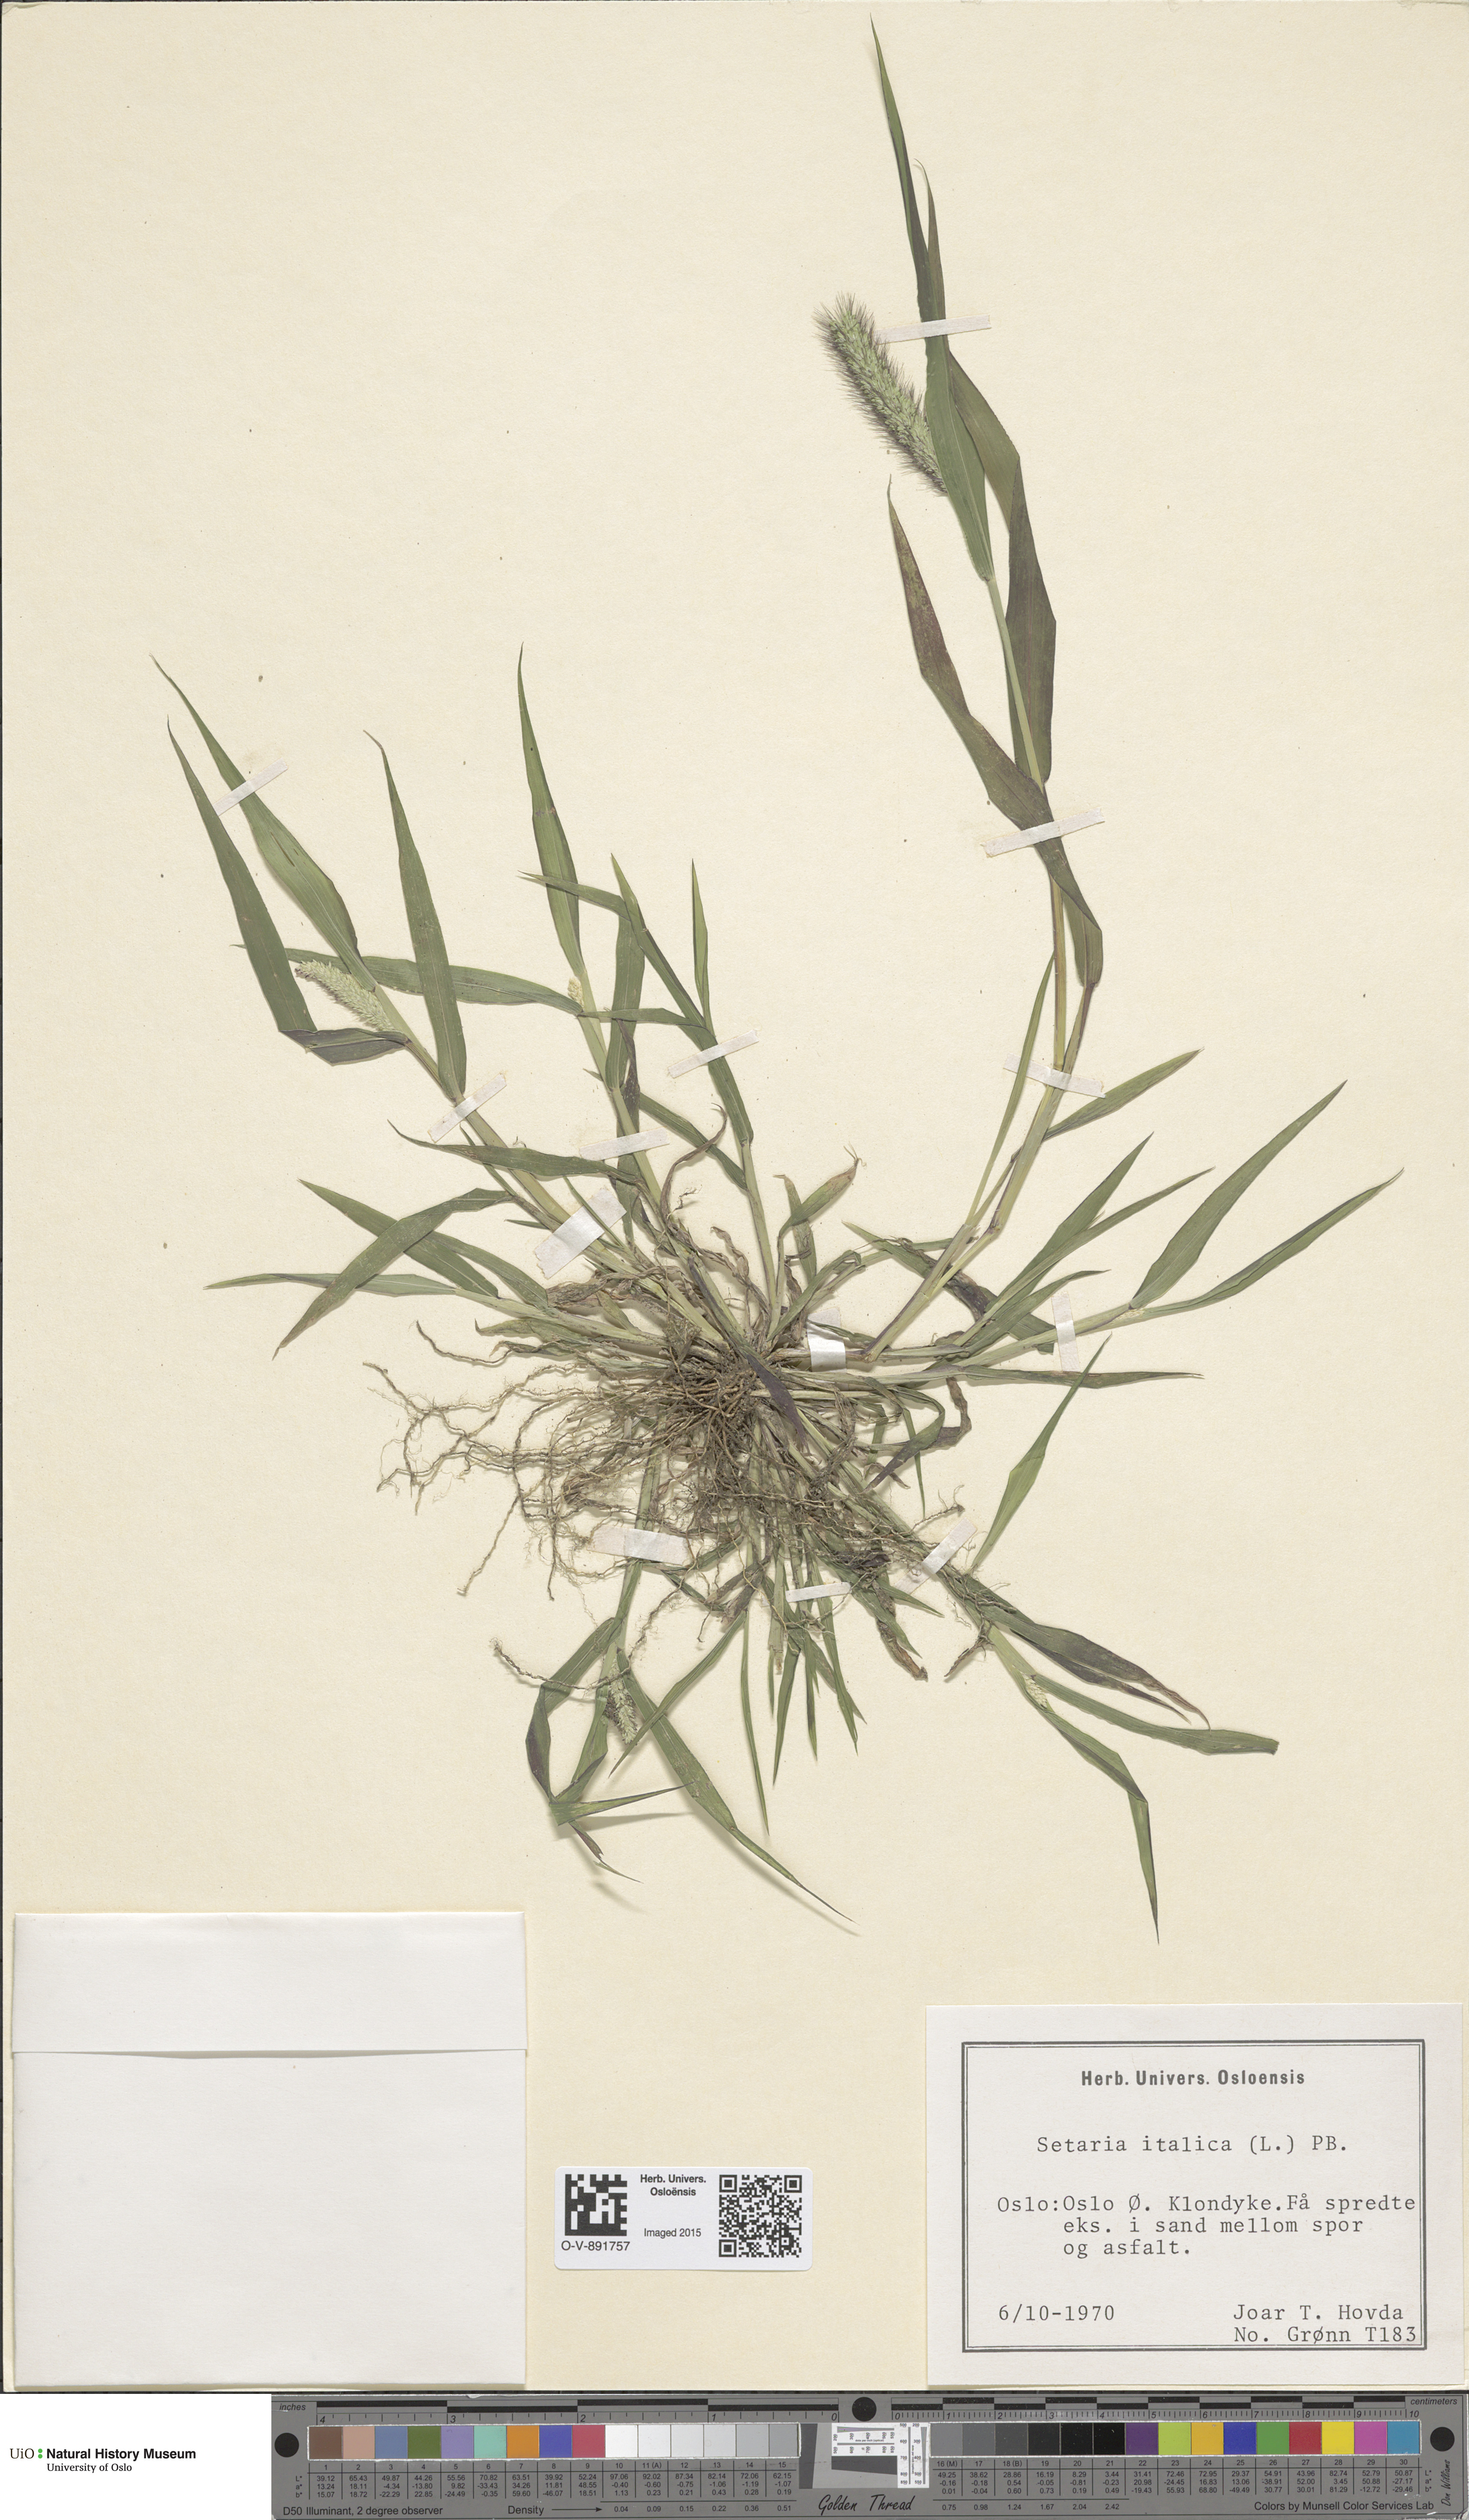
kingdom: Plantae
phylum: Tracheophyta
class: Liliopsida
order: Poales
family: Poaceae
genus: Setaria
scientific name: Setaria italica
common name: Foxtail bristle-grass
